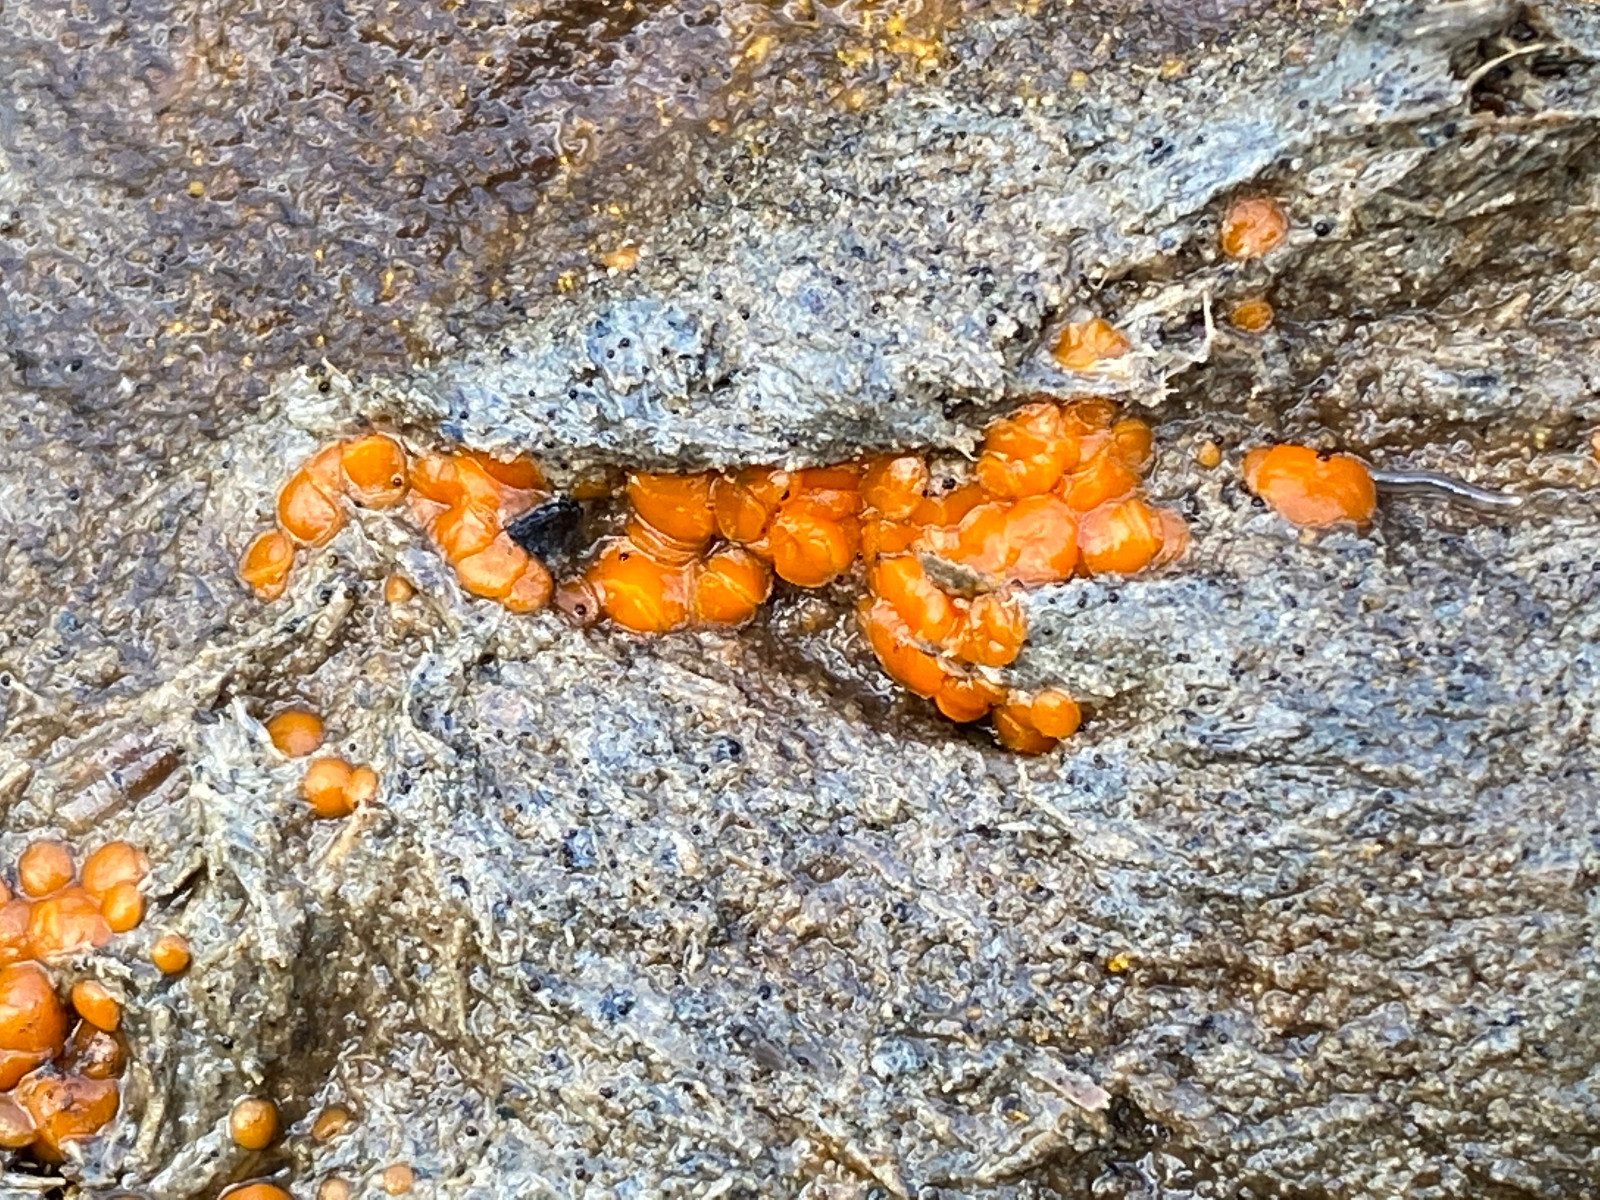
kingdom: Fungi
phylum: Ascomycota
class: Pezizomycetes
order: Pezizales
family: Pyronemataceae
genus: Cheilymenia
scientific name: Cheilymenia granulata
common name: møgbæger
